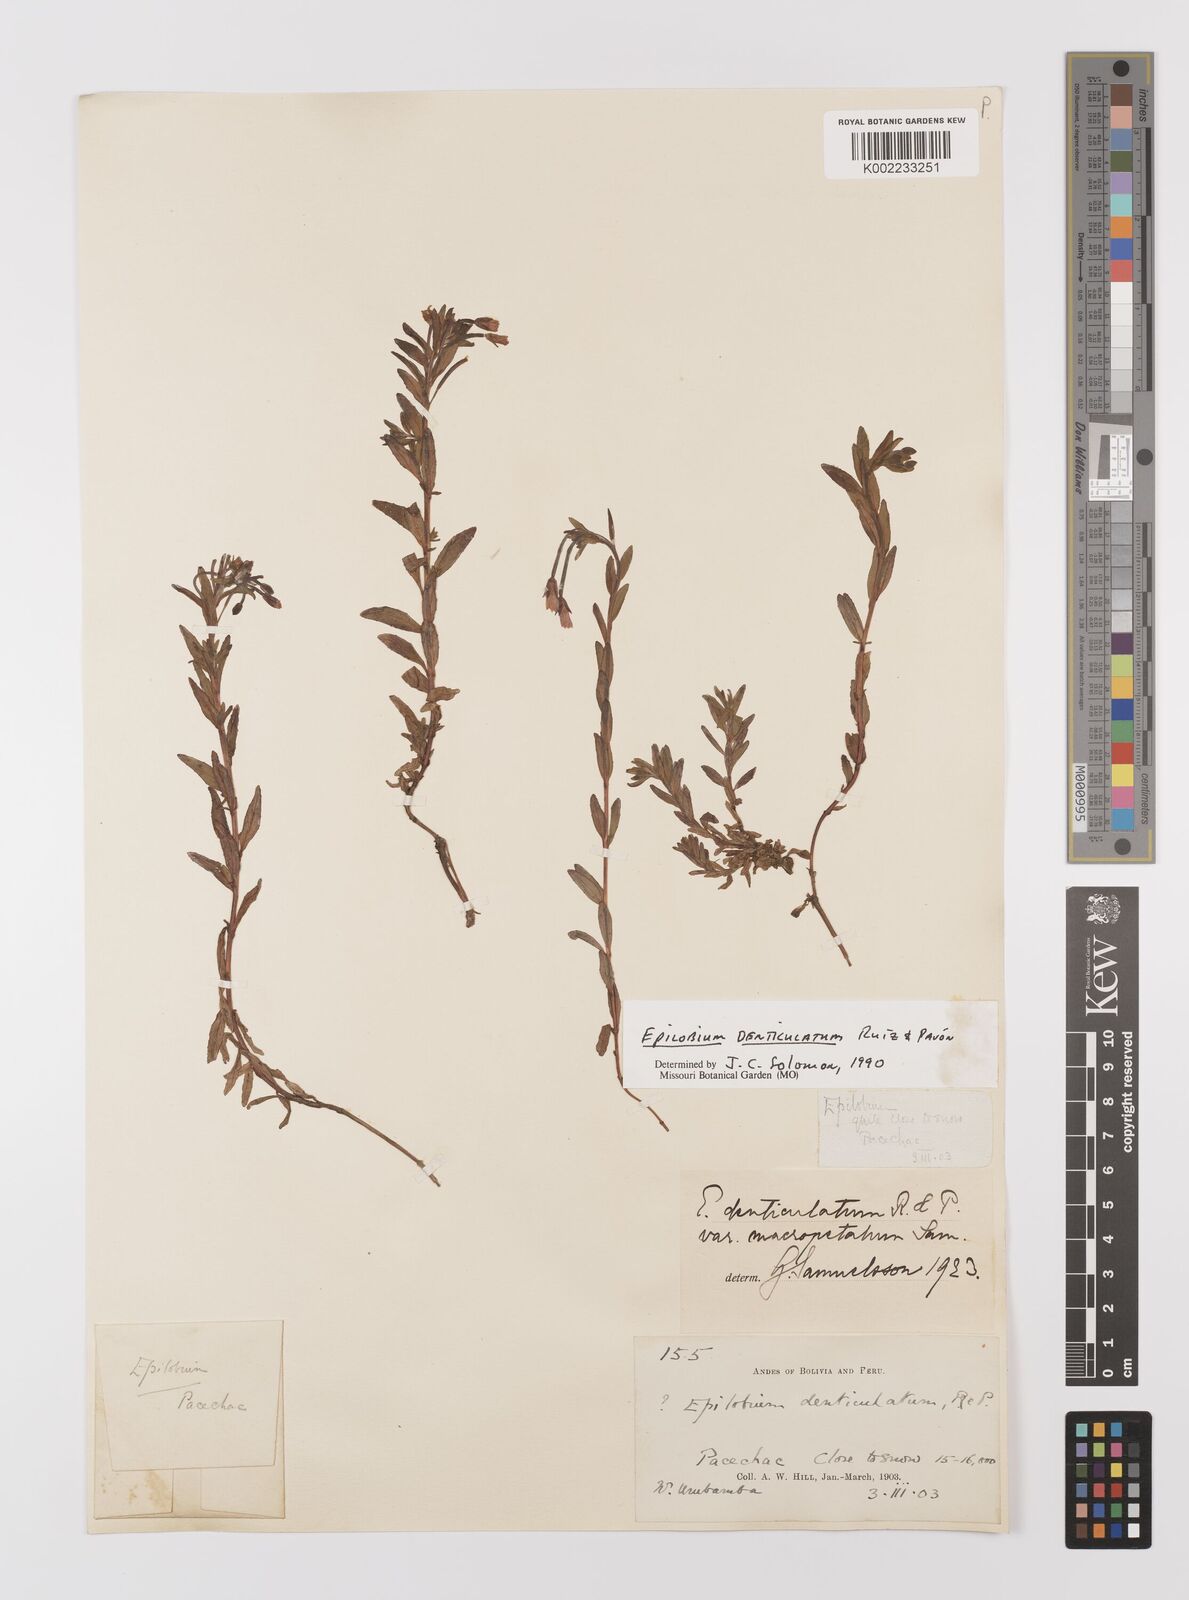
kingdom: Plantae
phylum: Tracheophyta
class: Magnoliopsida
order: Myrtales
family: Onagraceae
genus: Epilobium
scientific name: Epilobium denticulatum
